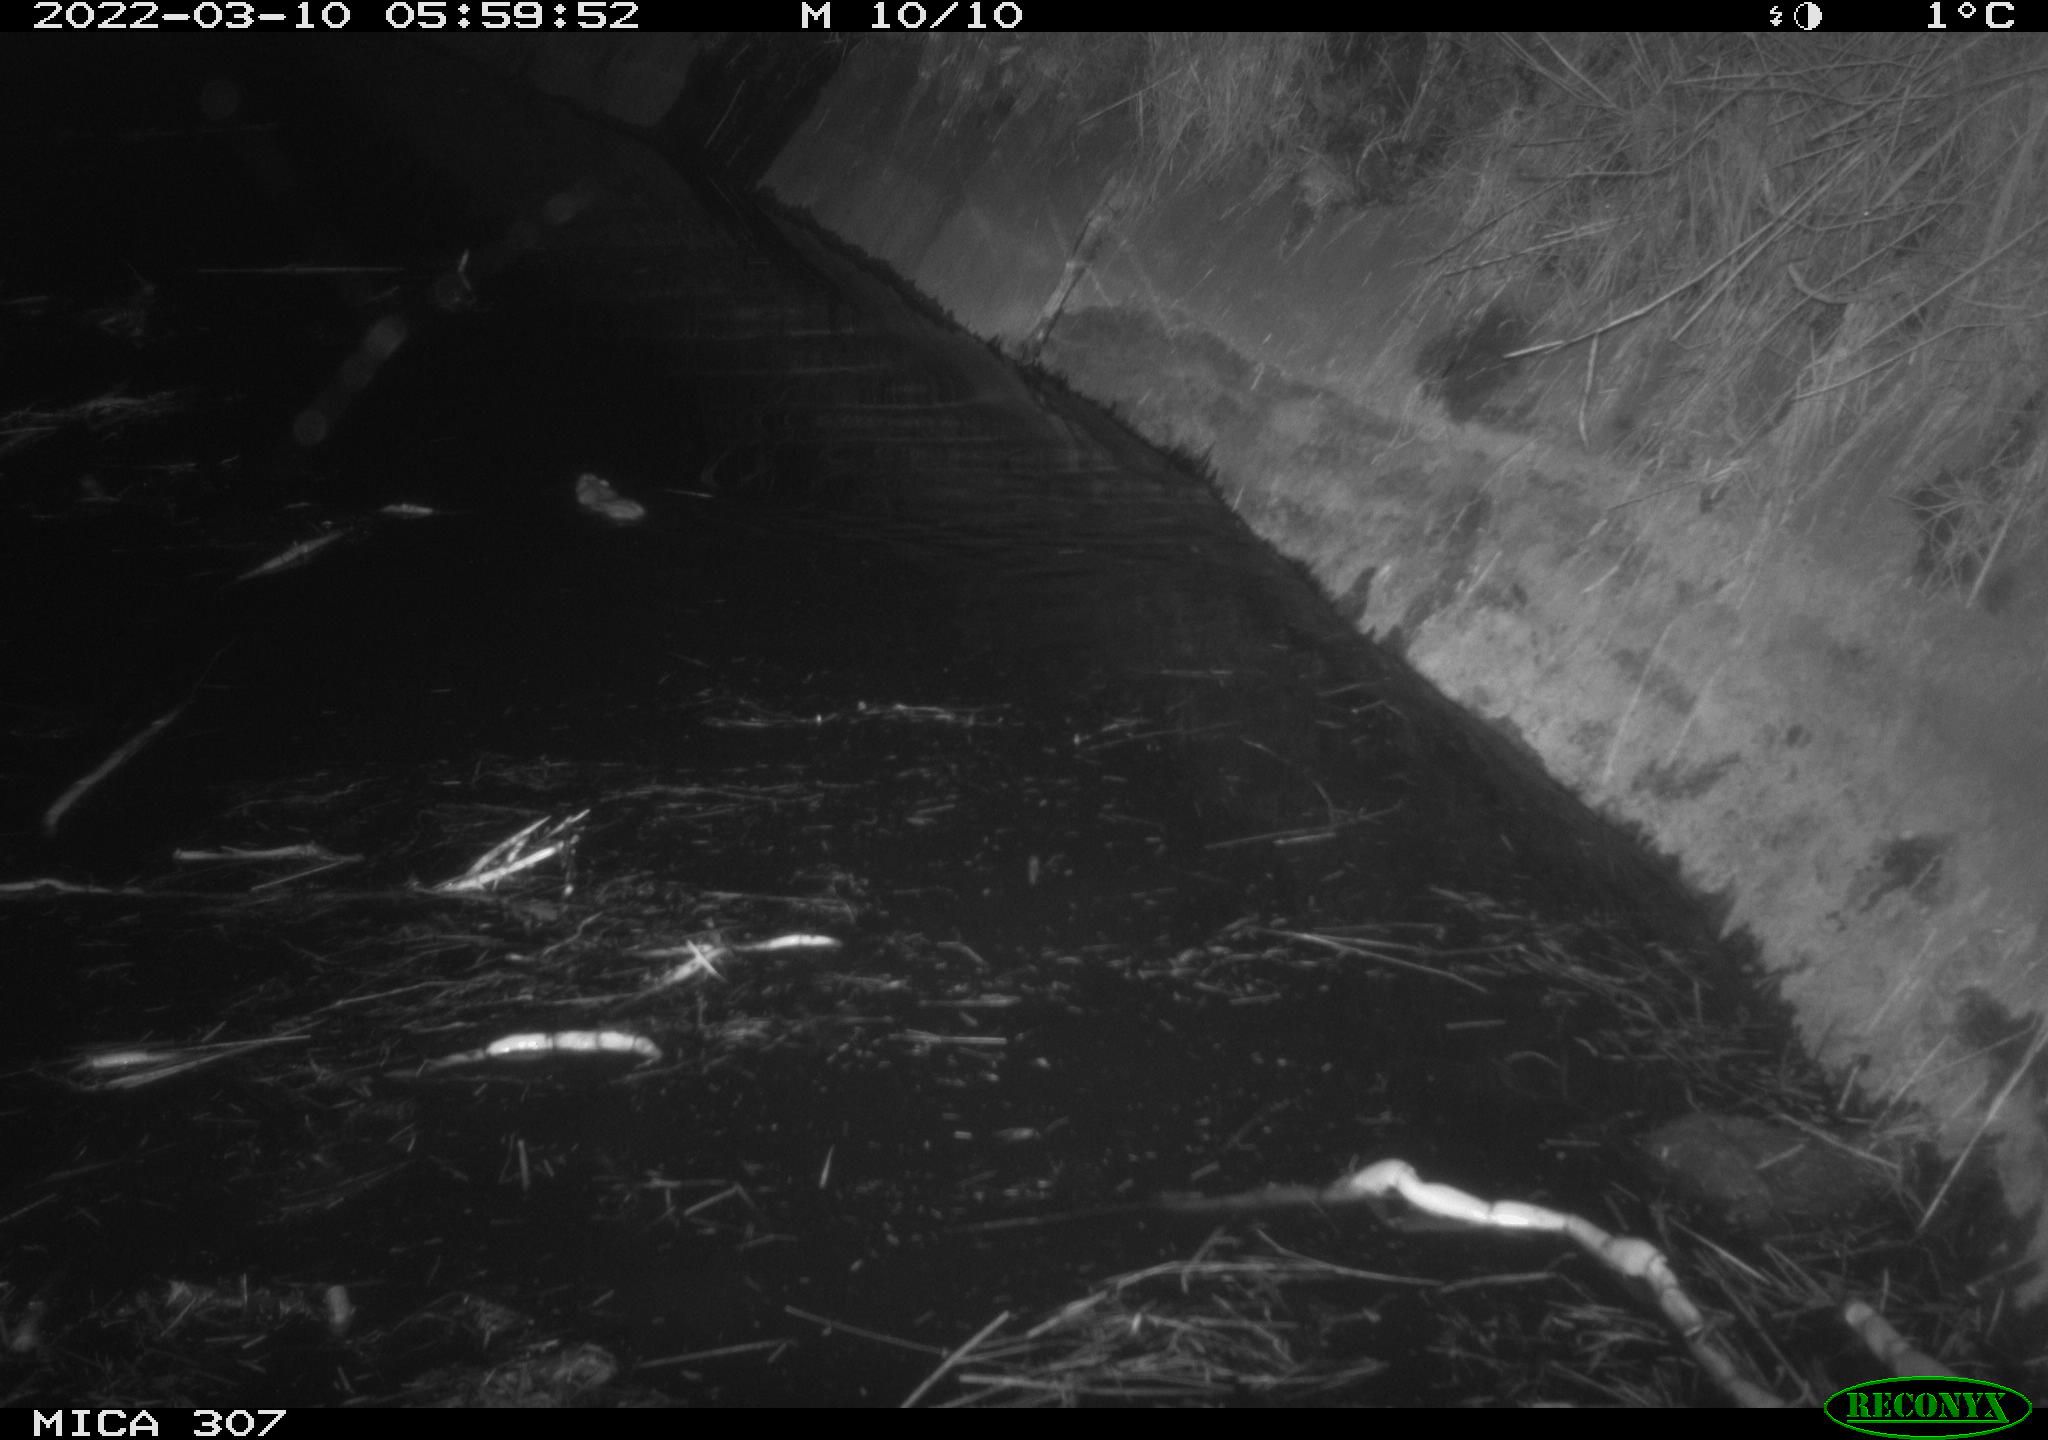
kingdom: Animalia
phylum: Chordata
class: Mammalia
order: Rodentia
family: Muridae
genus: Rattus
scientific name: Rattus norvegicus
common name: Brown rat
